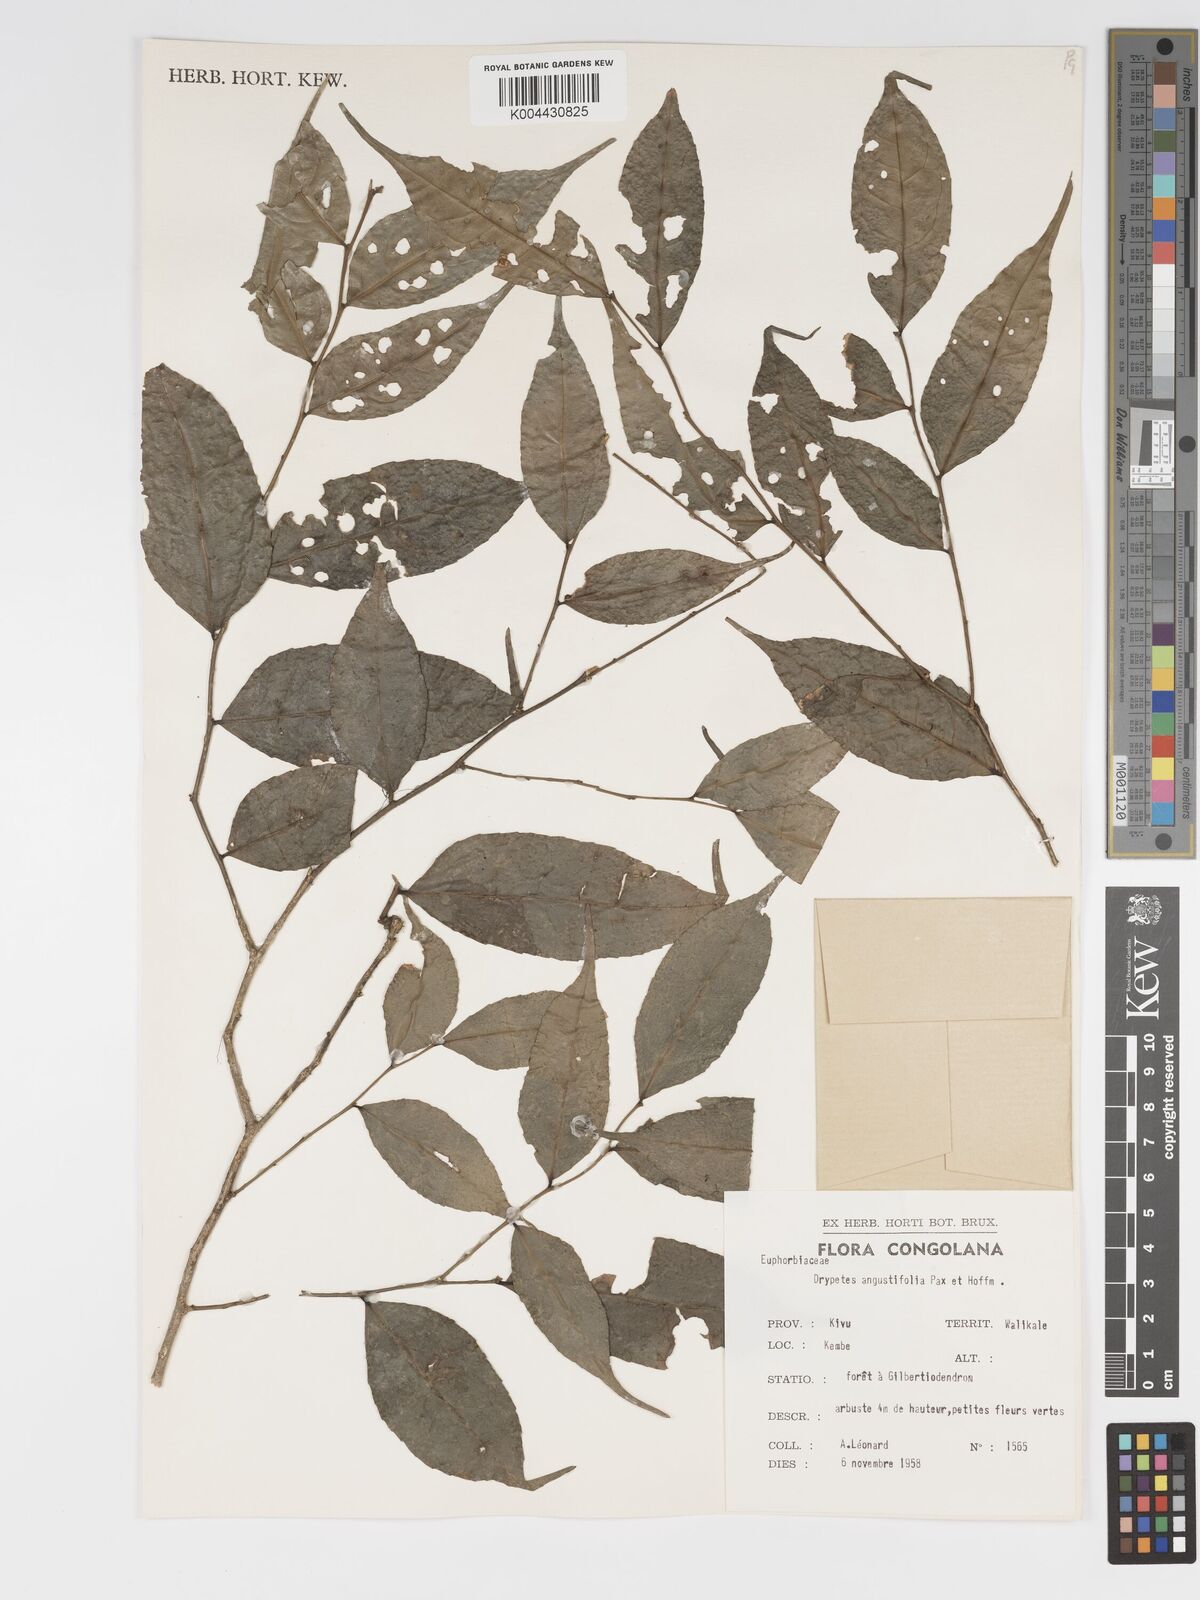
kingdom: Plantae
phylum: Tracheophyta
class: Magnoliopsida
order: Malpighiales
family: Putranjivaceae
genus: Drypetes
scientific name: Drypetes angustifolia
